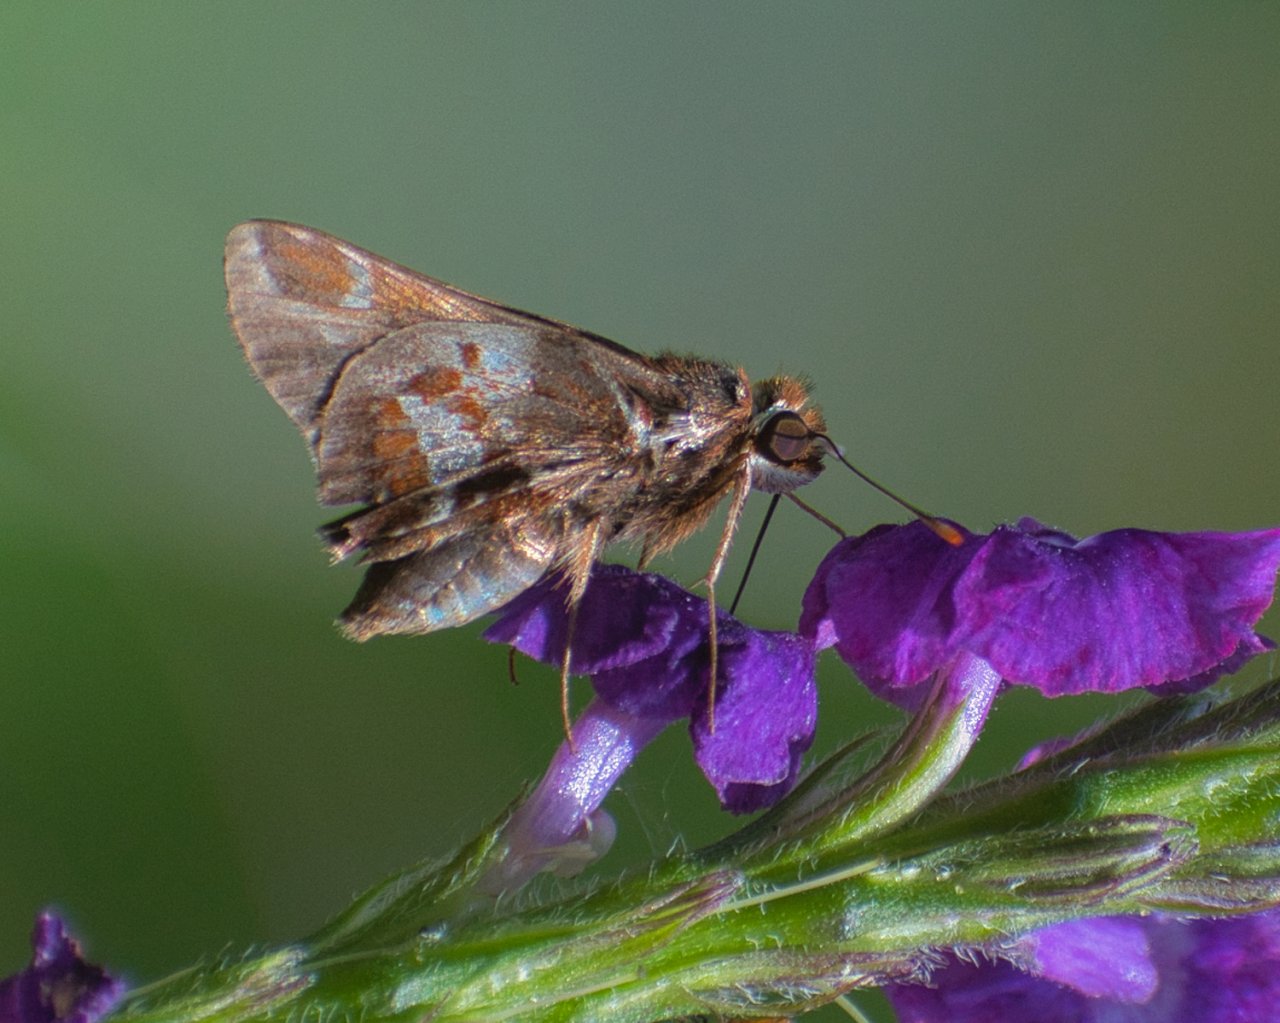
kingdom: Animalia
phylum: Arthropoda
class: Insecta
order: Lepidoptera
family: Hesperiidae
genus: Thespieus
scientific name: Thespieus macareus
